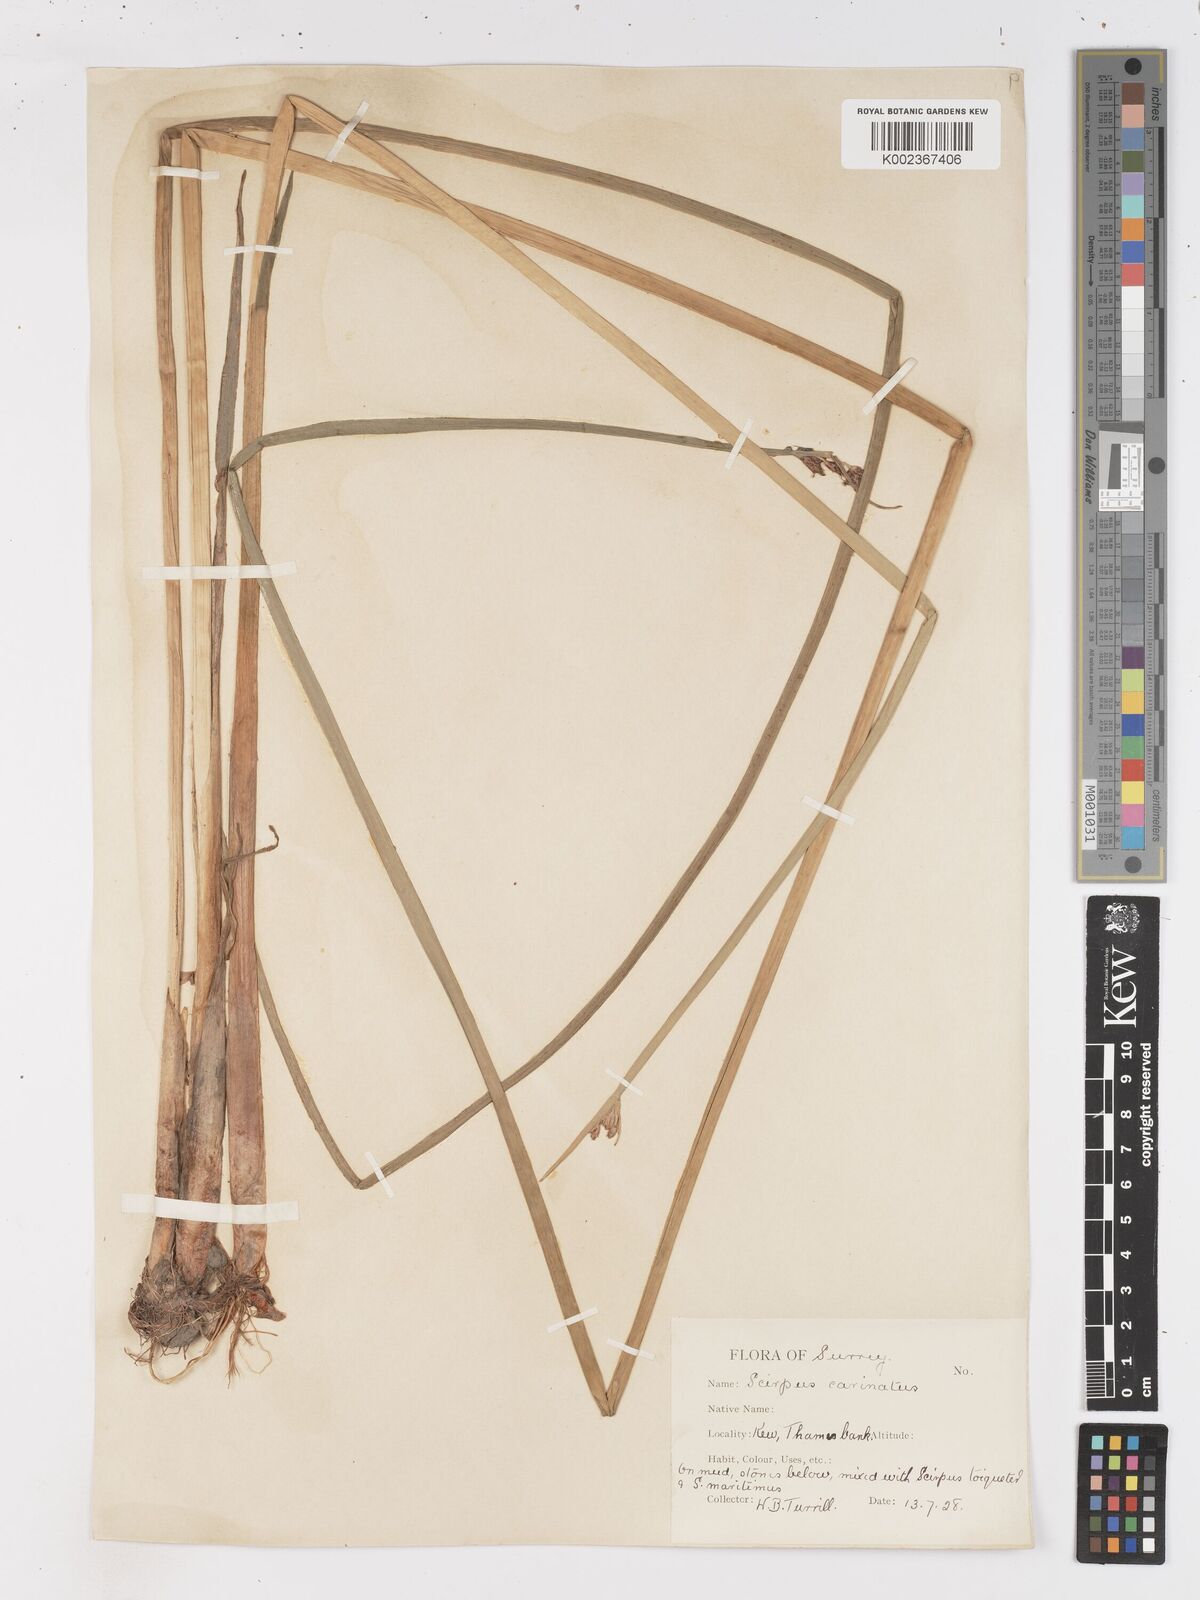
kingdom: Plantae
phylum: Tracheophyta
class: Liliopsida
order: Poales
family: Cyperaceae
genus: Isolepis
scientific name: Isolepis carinata
